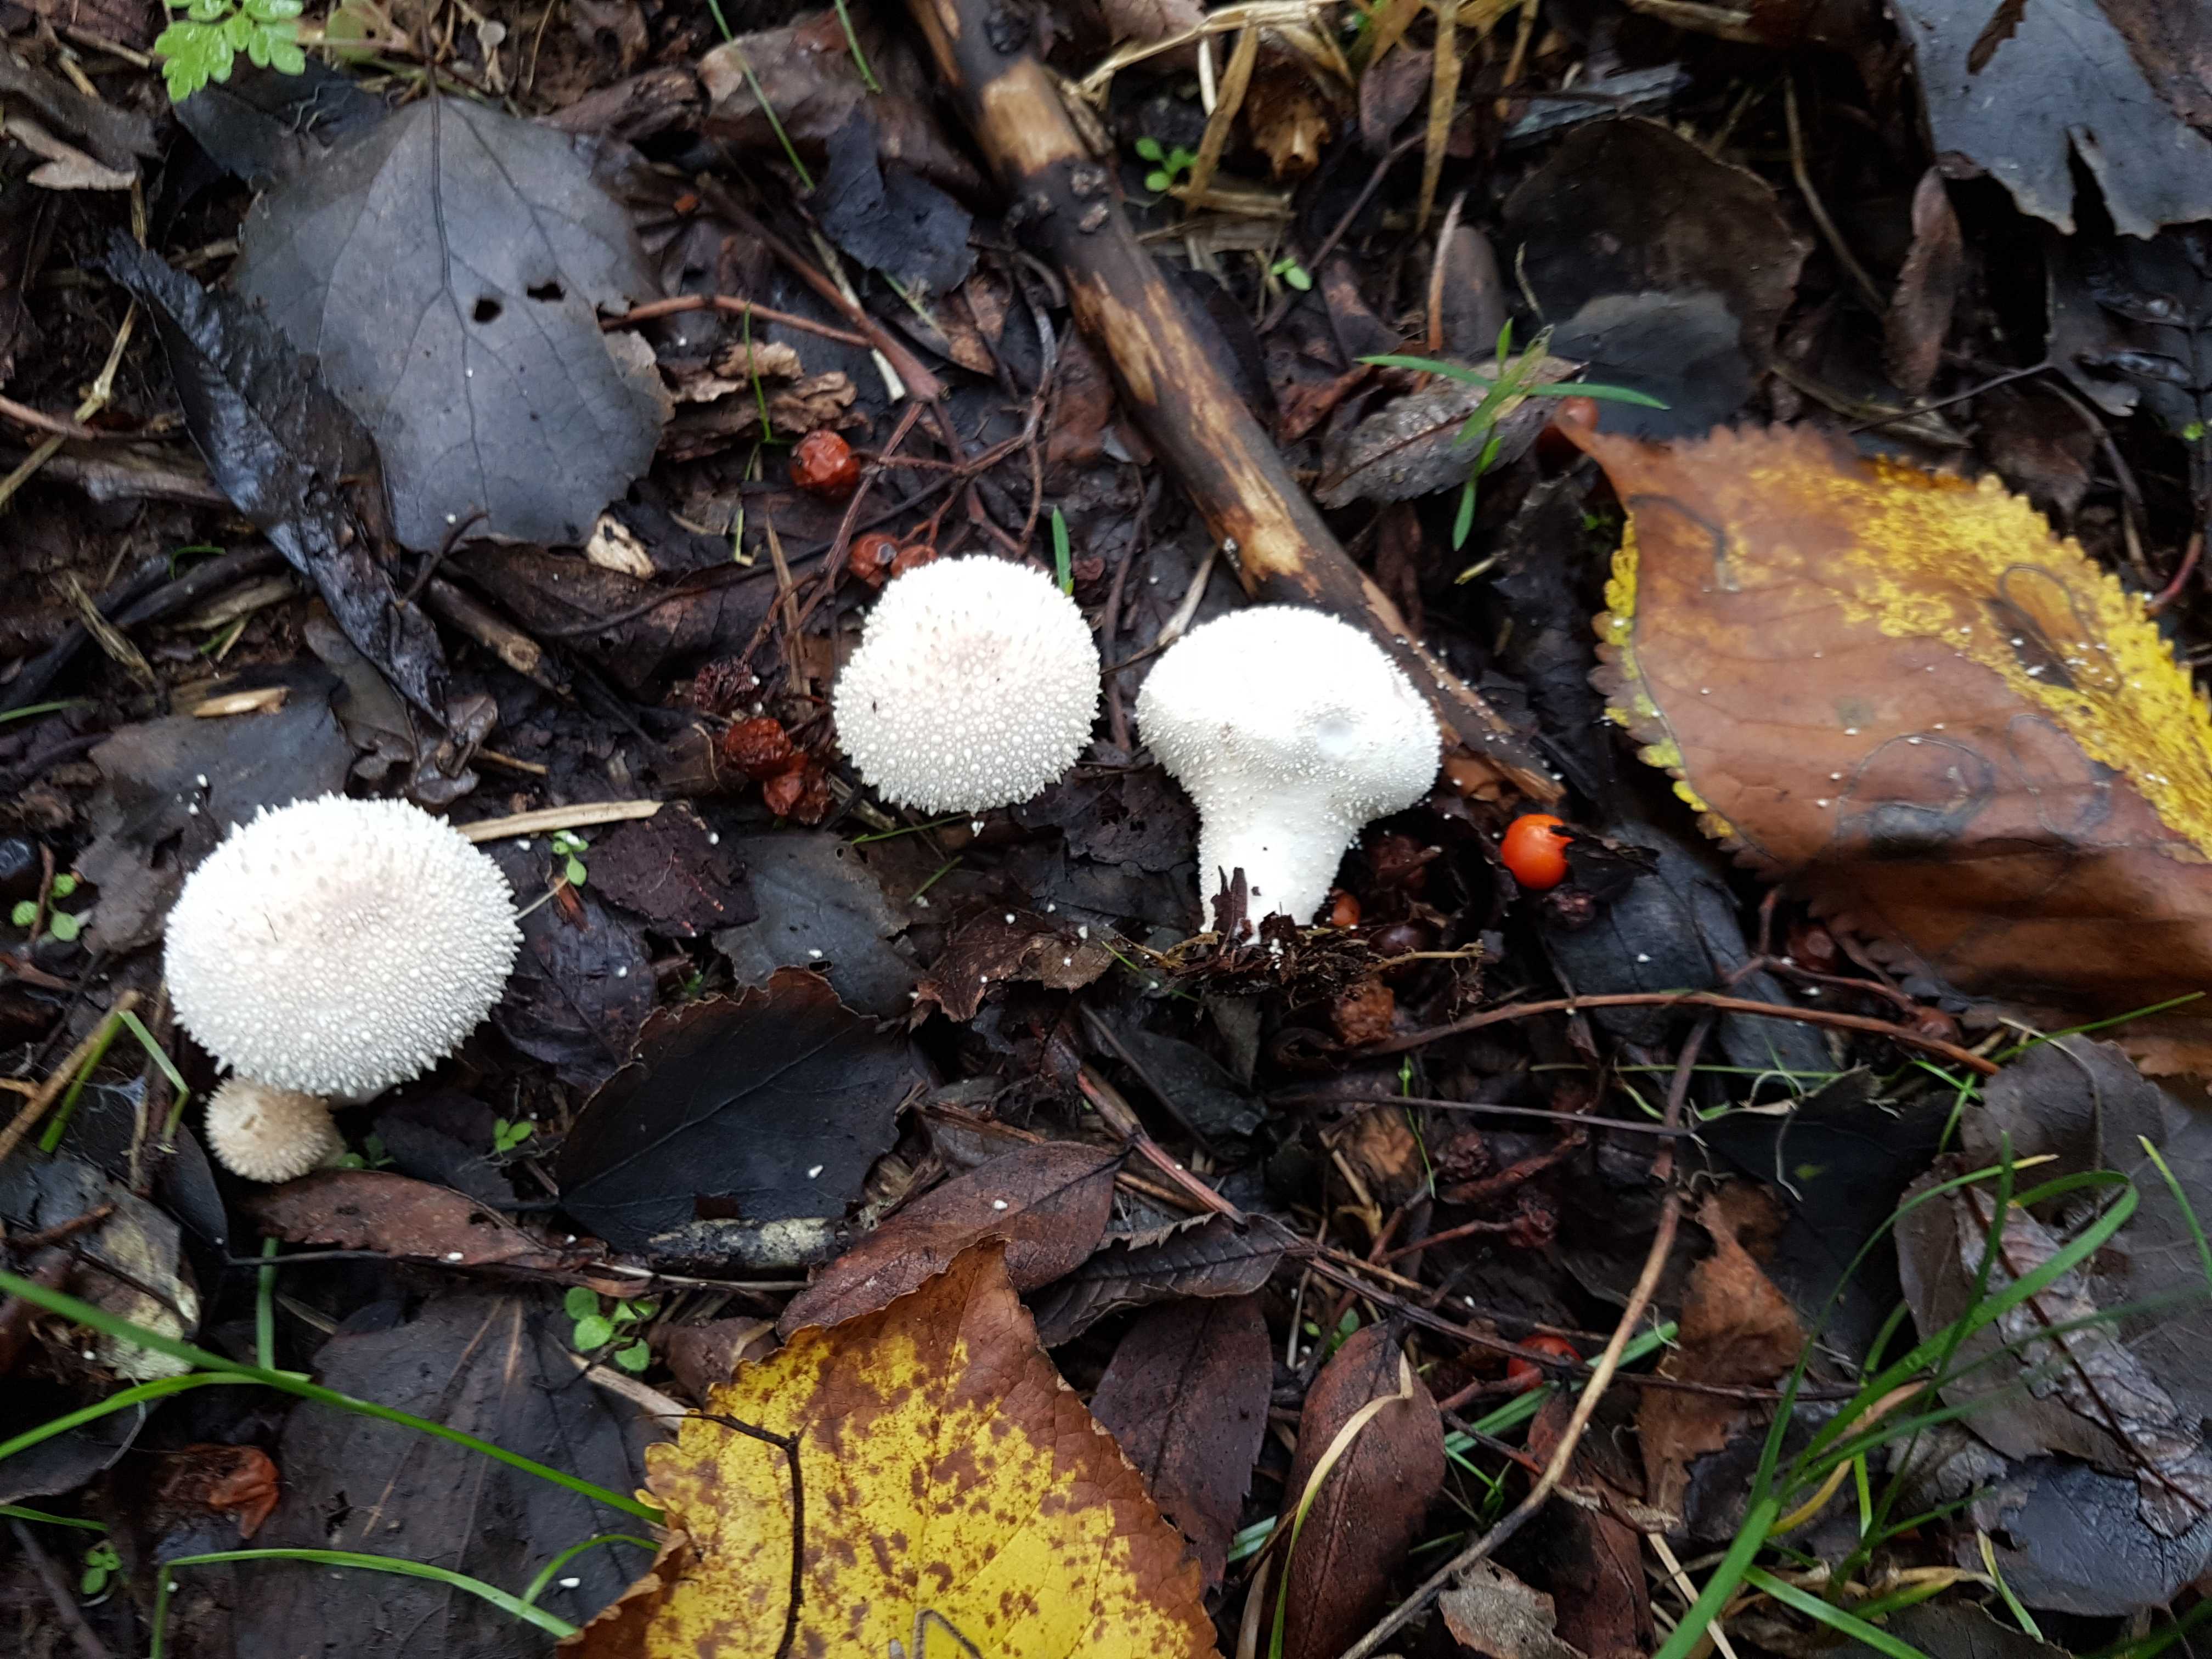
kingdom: Fungi
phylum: Basidiomycota
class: Agaricomycetes
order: Agaricales
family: Lycoperdaceae
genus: Lycoperdon
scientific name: Lycoperdon perlatum
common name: krystal-støvbold
